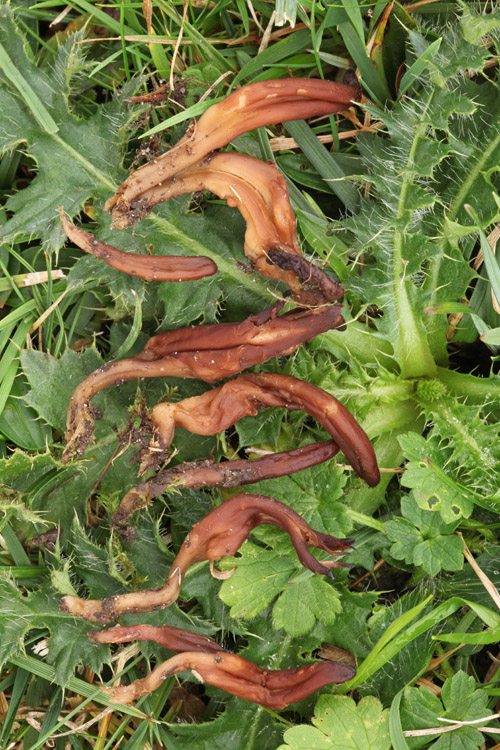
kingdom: Fungi
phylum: Ascomycota
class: Leotiomycetes
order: Leotiales
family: Leotiaceae
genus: Microglossum
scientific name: Microglossum olivaceum
